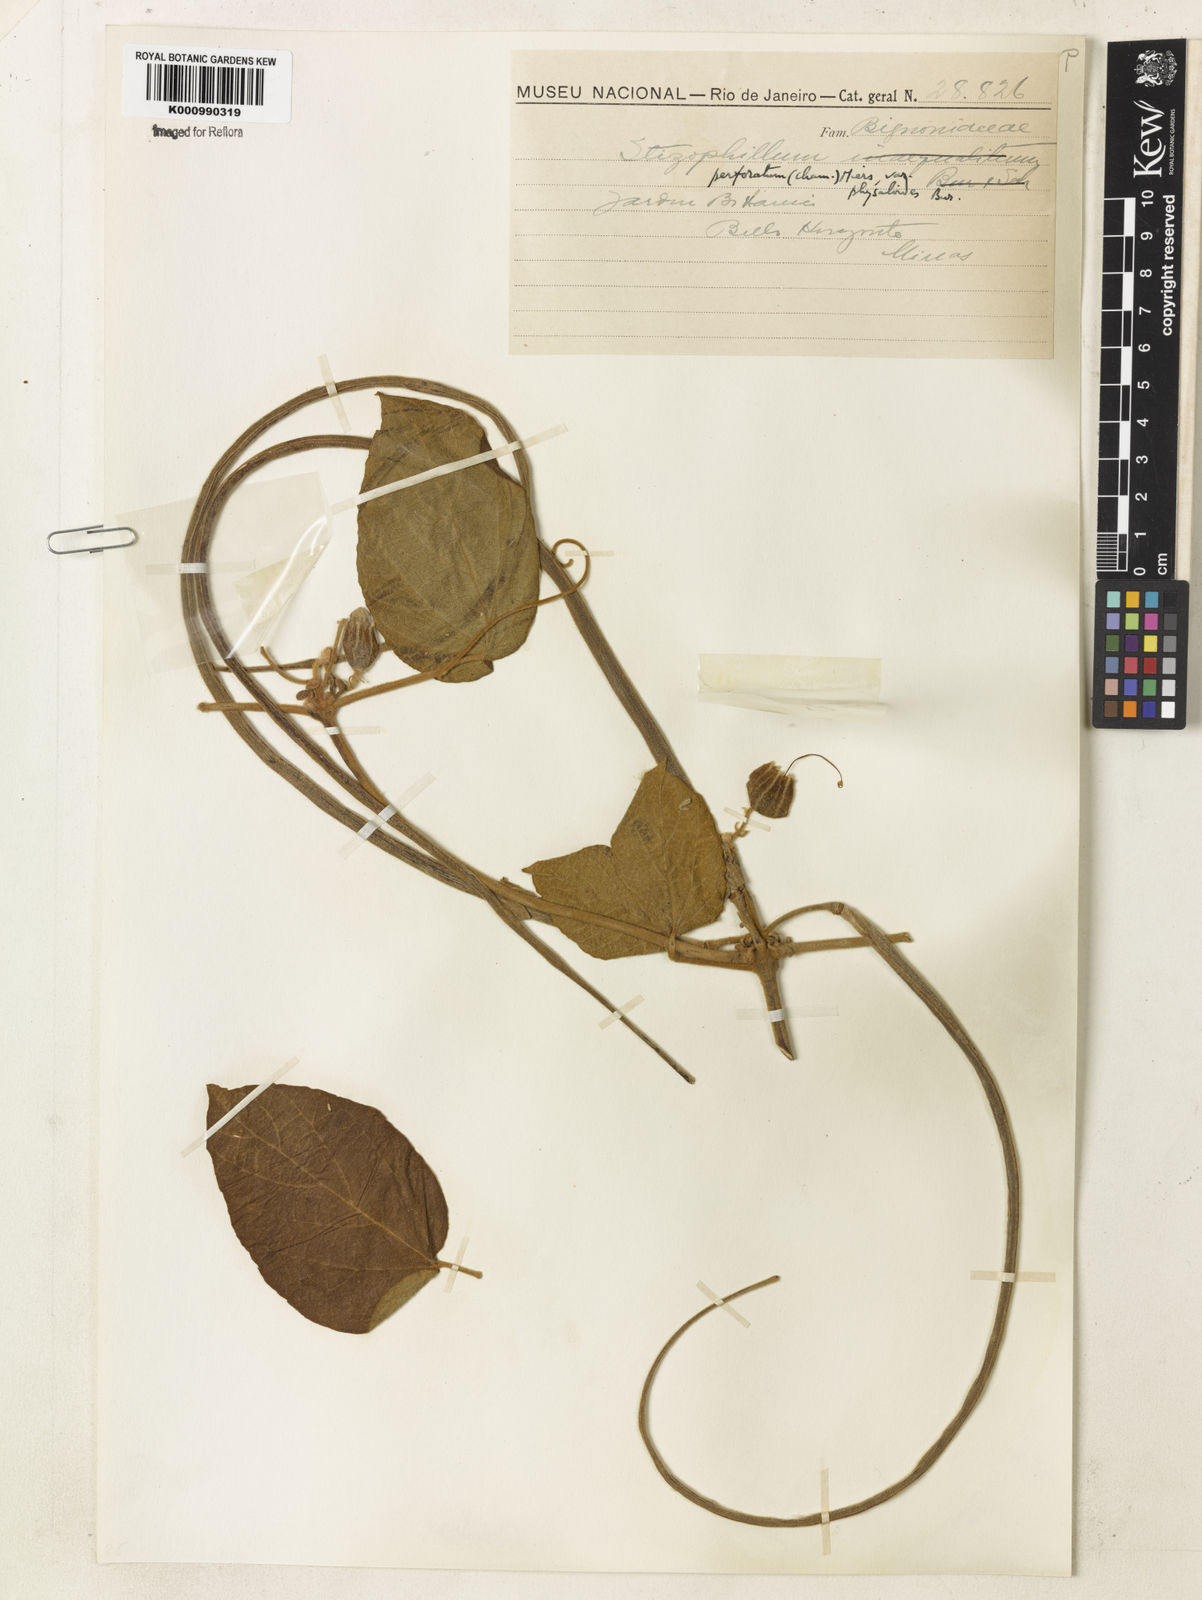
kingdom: Plantae
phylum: Tracheophyta
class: Magnoliopsida
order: Lamiales
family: Bignoniaceae
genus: Stizophyllum
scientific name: Stizophyllum perforatum
